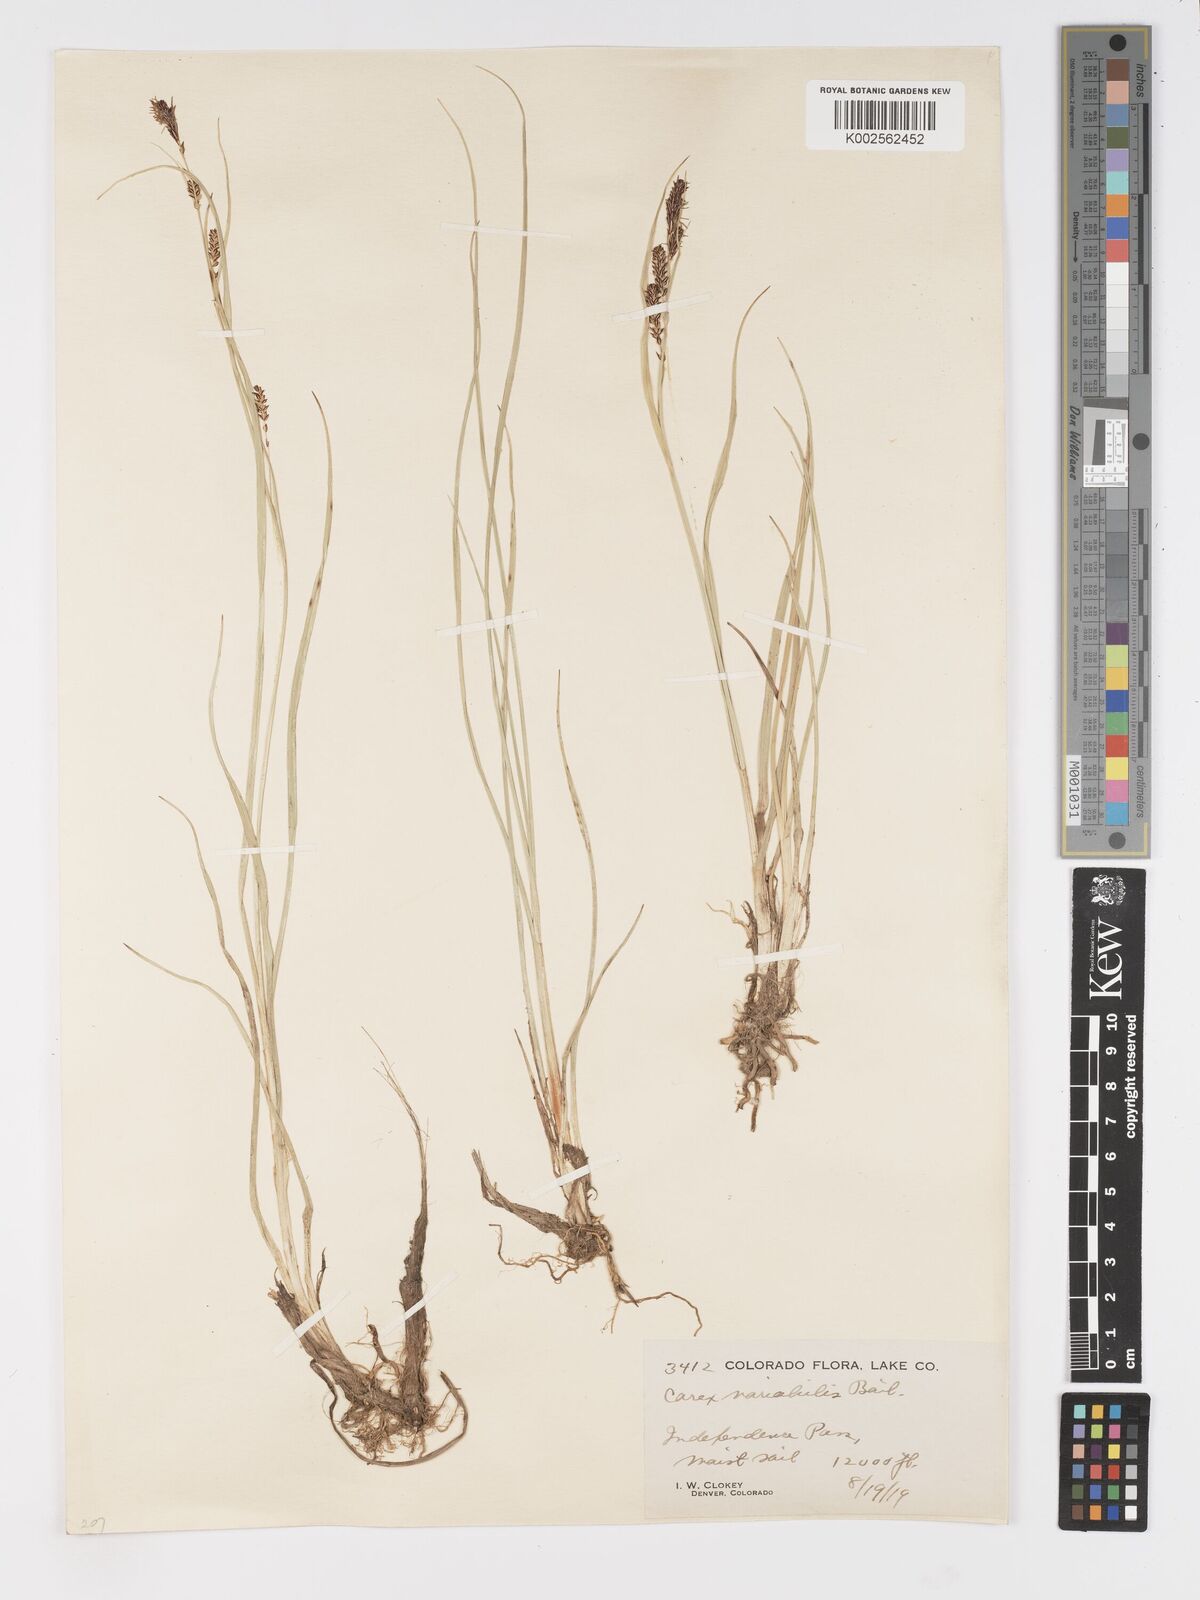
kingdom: Plantae
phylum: Tracheophyta
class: Liliopsida
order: Poales
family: Cyperaceae
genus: Carex
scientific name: Carex
